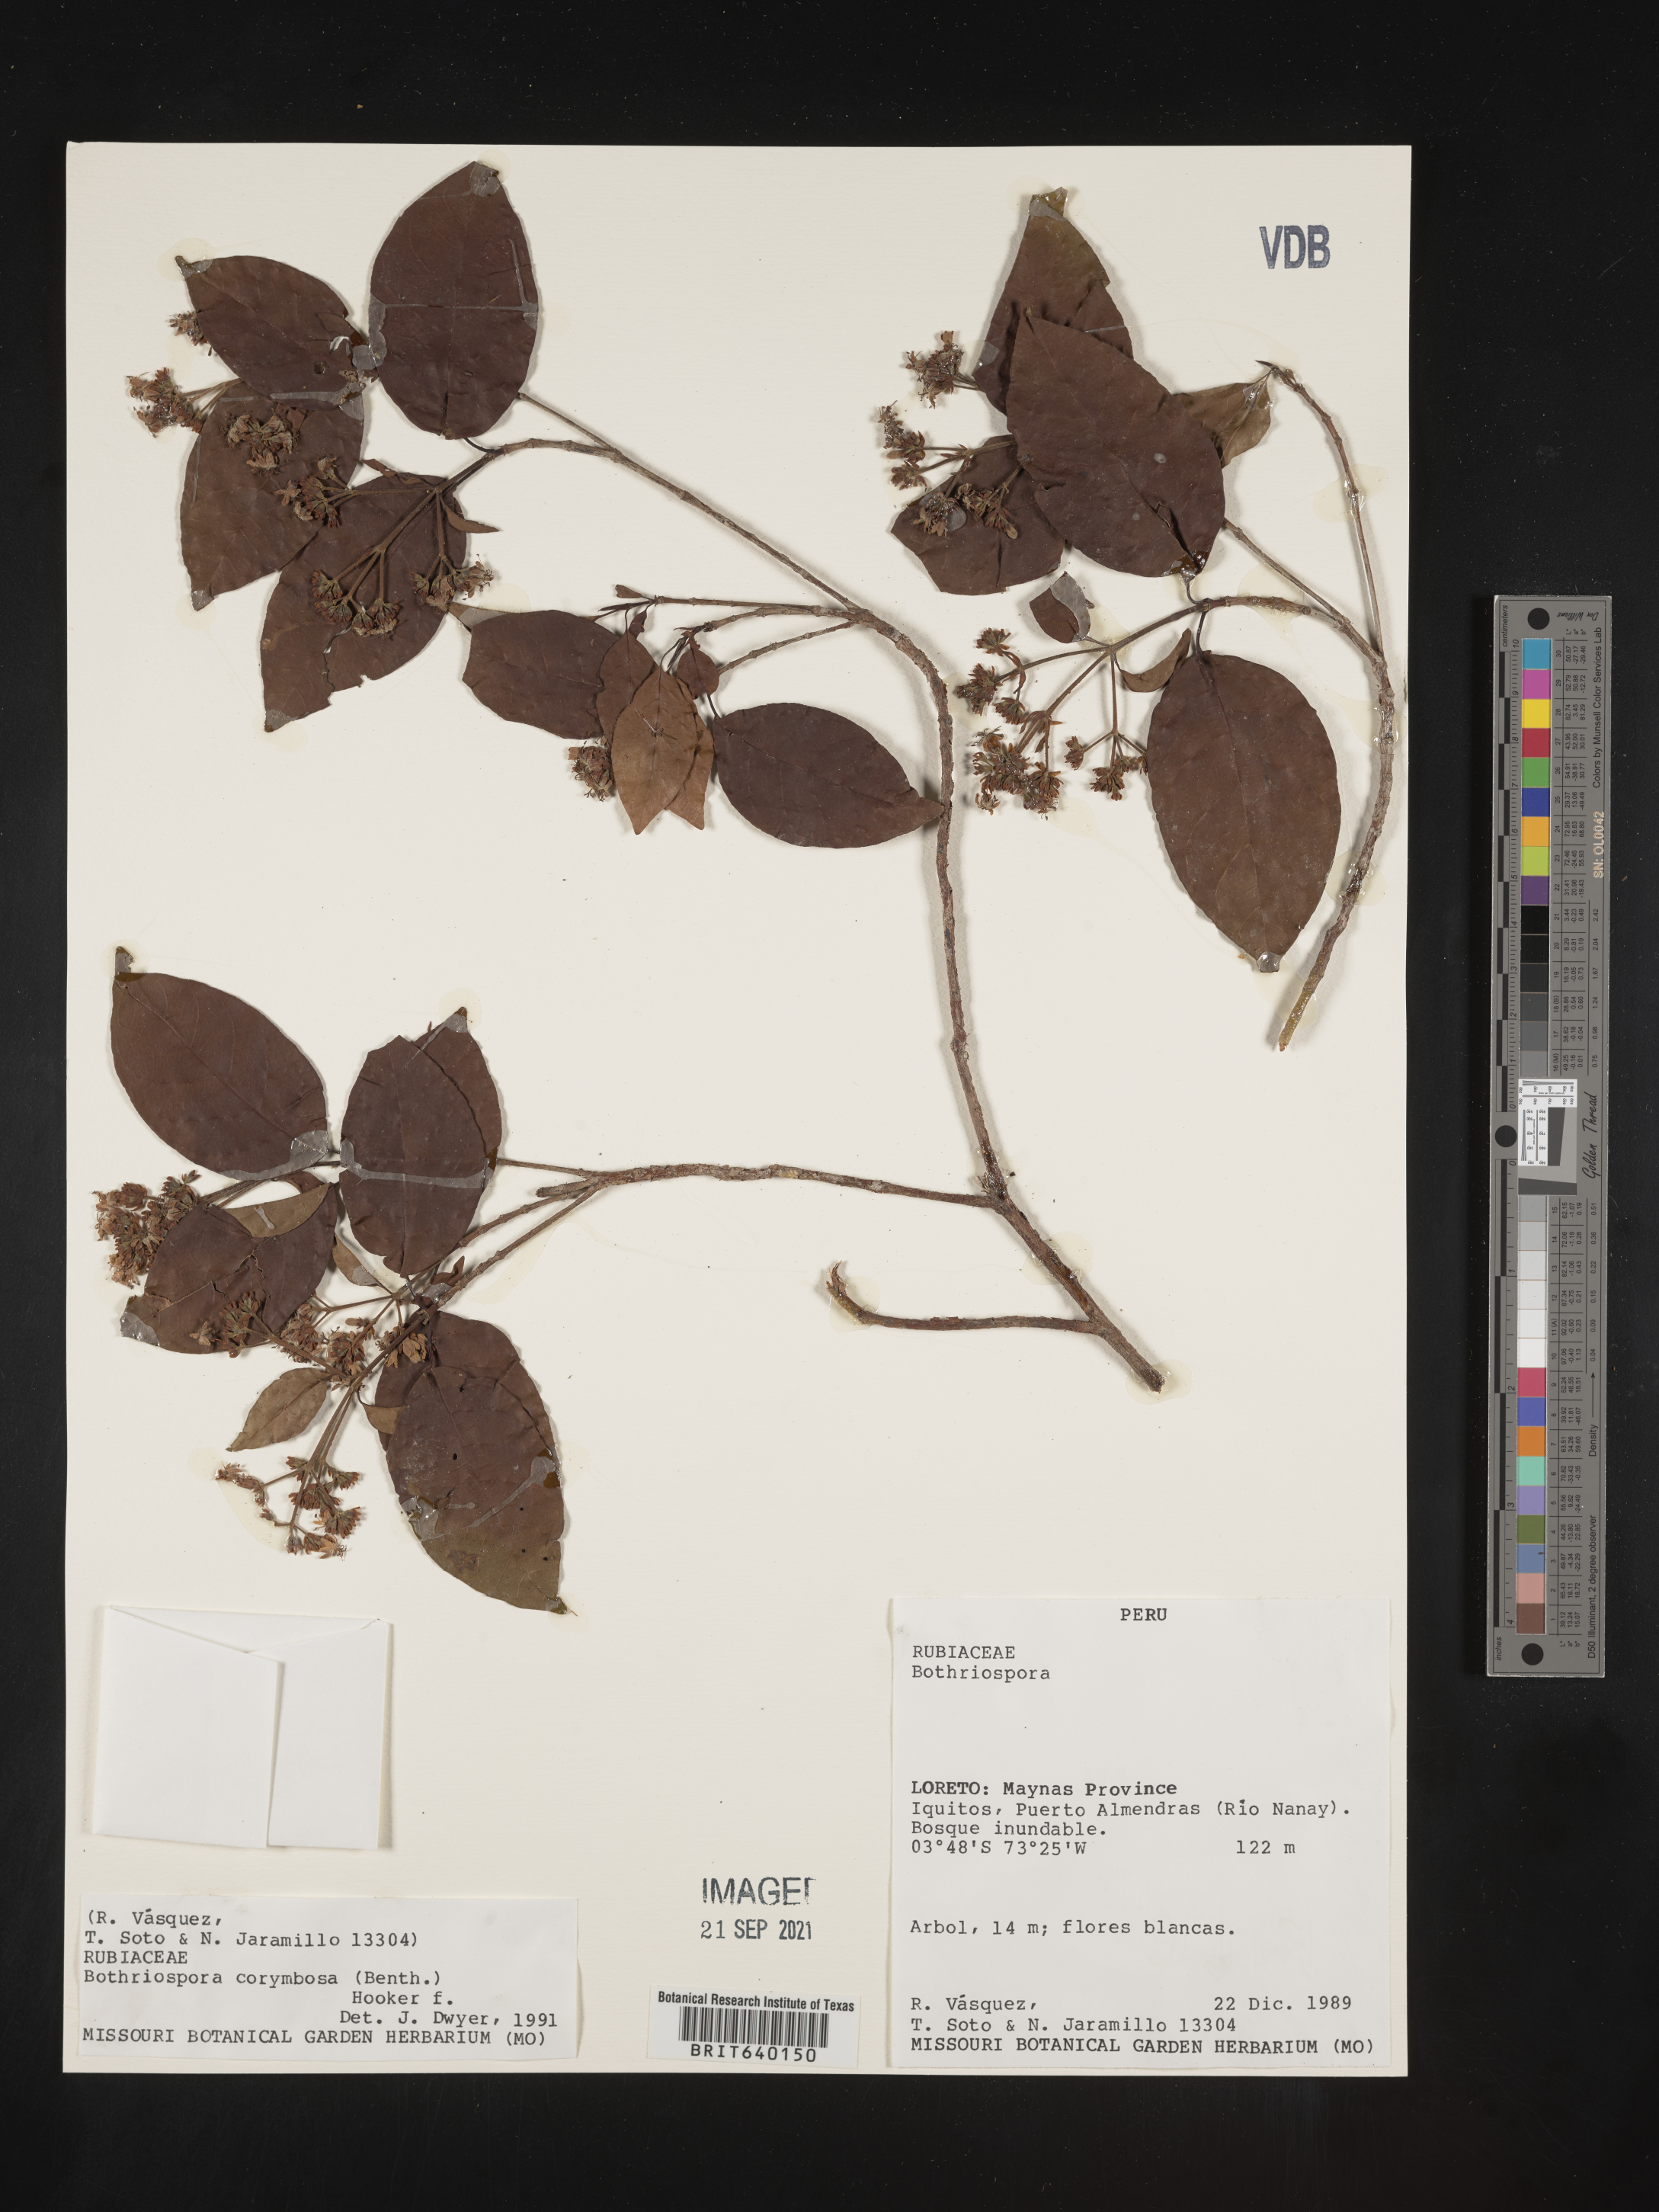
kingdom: Plantae
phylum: Tracheophyta
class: Magnoliopsida
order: Gentianales
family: Rubiaceae
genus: Bothriospora
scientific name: Bothriospora
